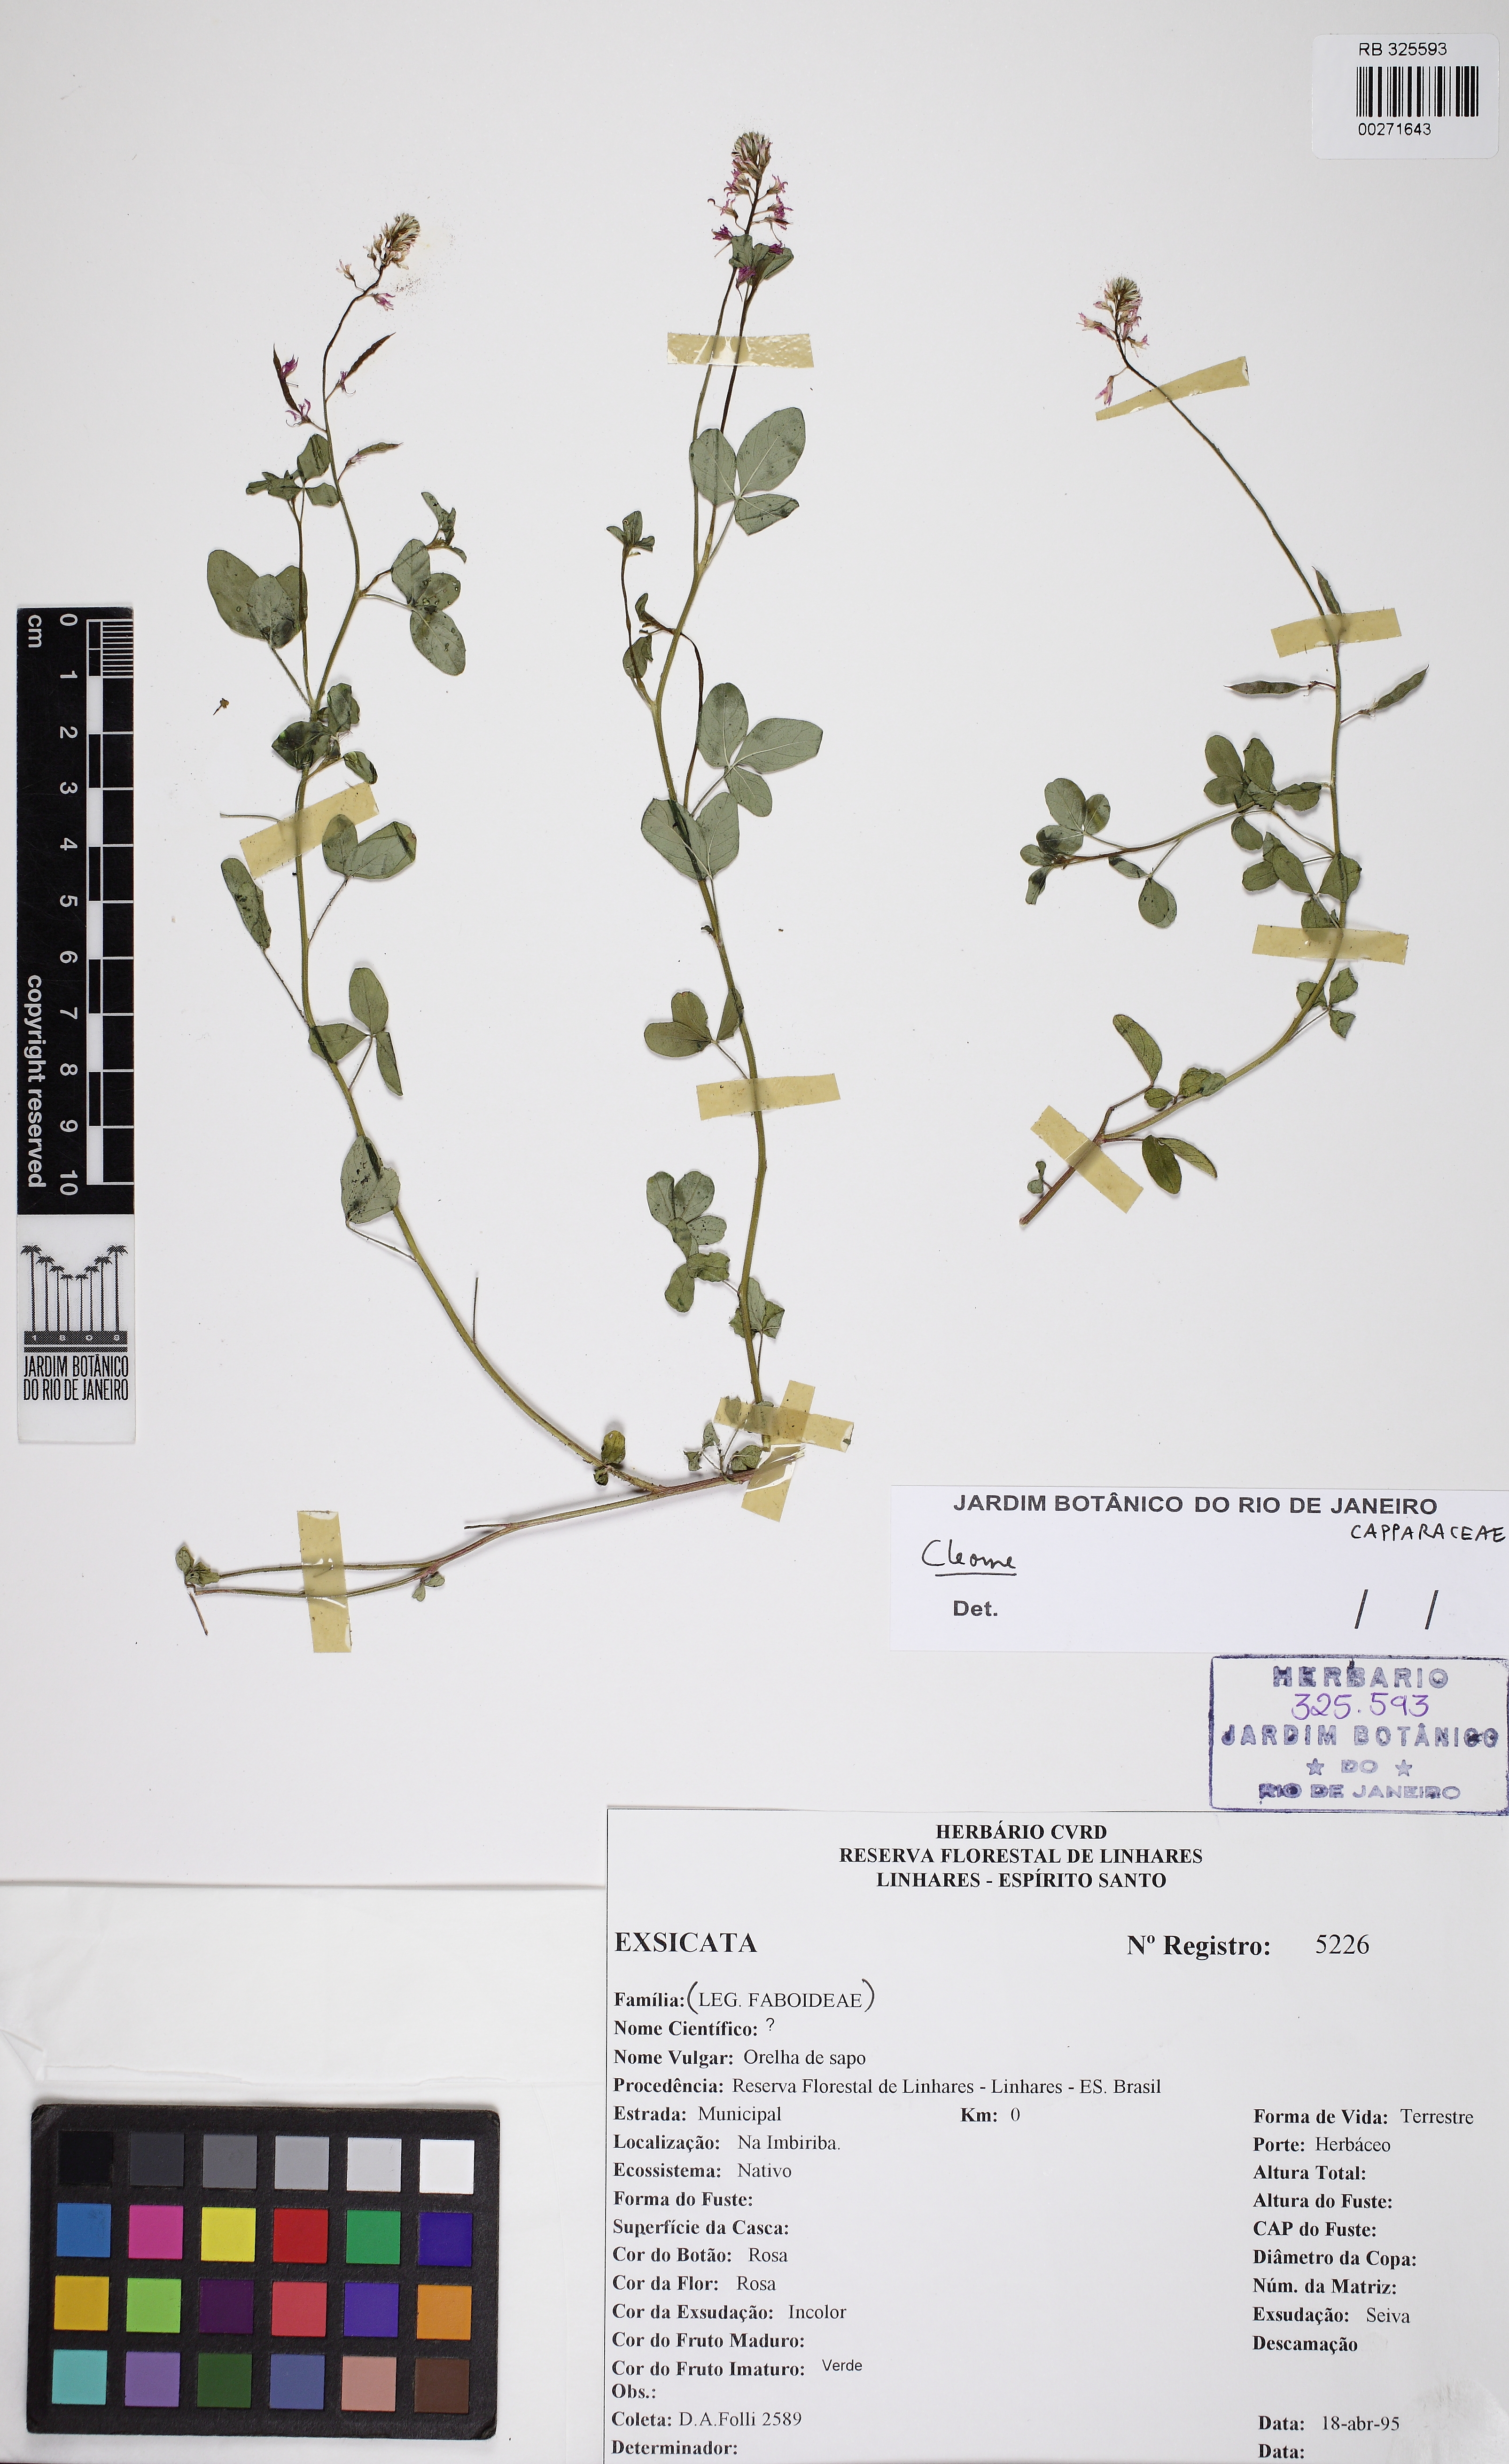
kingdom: Plantae
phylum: Tracheophyta
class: Magnoliopsida
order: Brassicales
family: Cleomaceae
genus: Dactylaena
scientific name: Dactylaena microphylla
